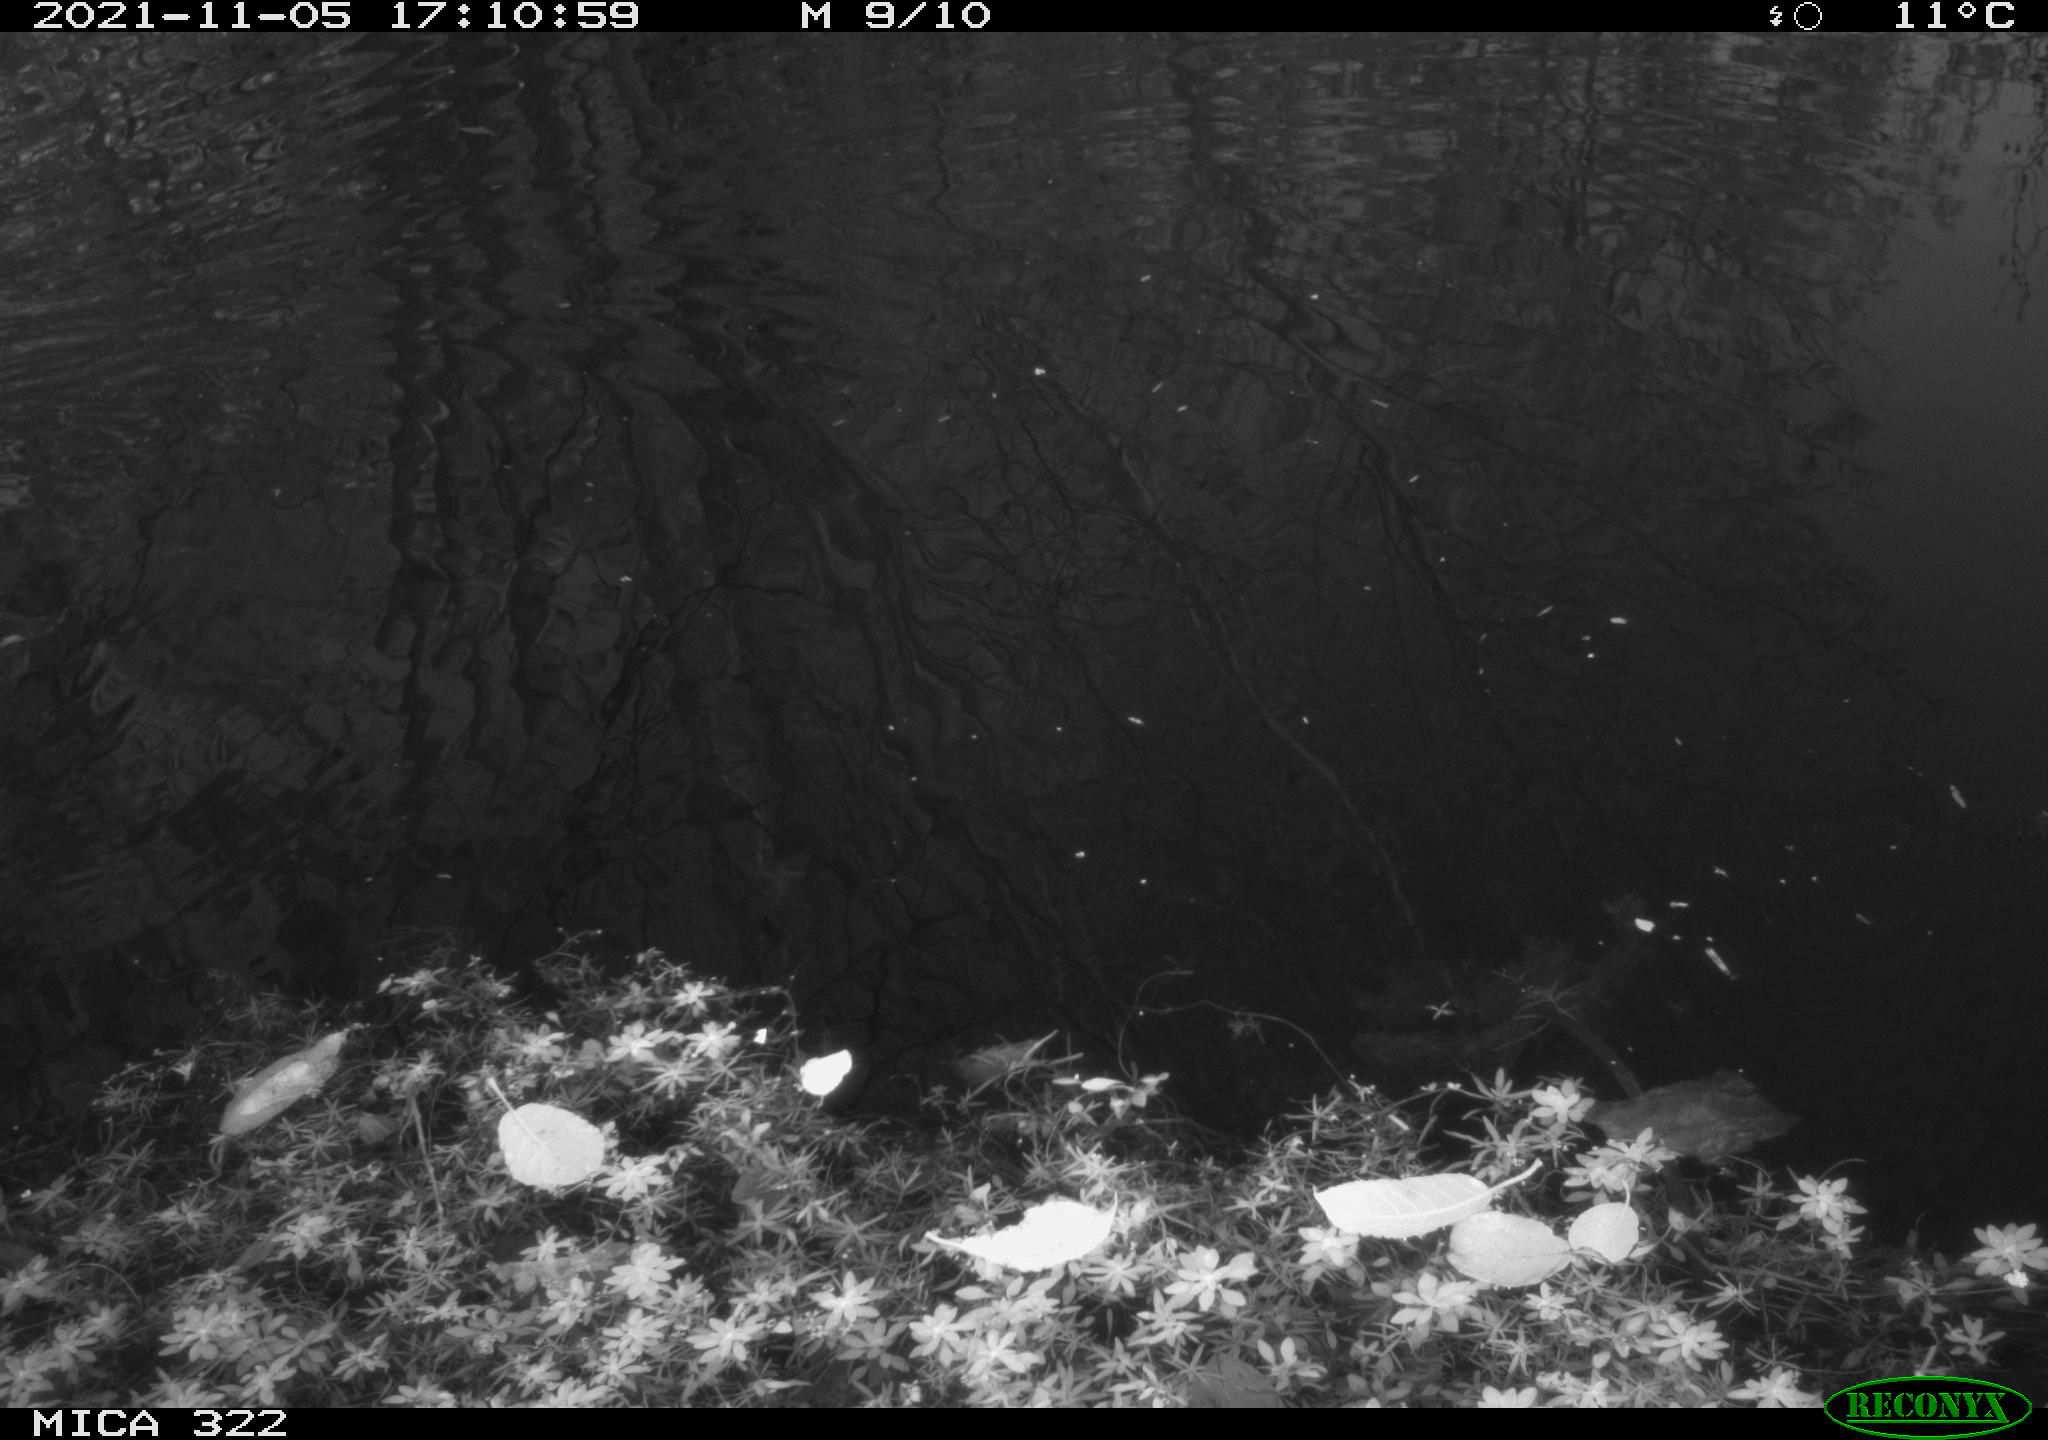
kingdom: Animalia
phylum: Chordata
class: Aves
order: Gruiformes
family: Rallidae
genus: Gallinula
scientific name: Gallinula chloropus
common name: Common moorhen
